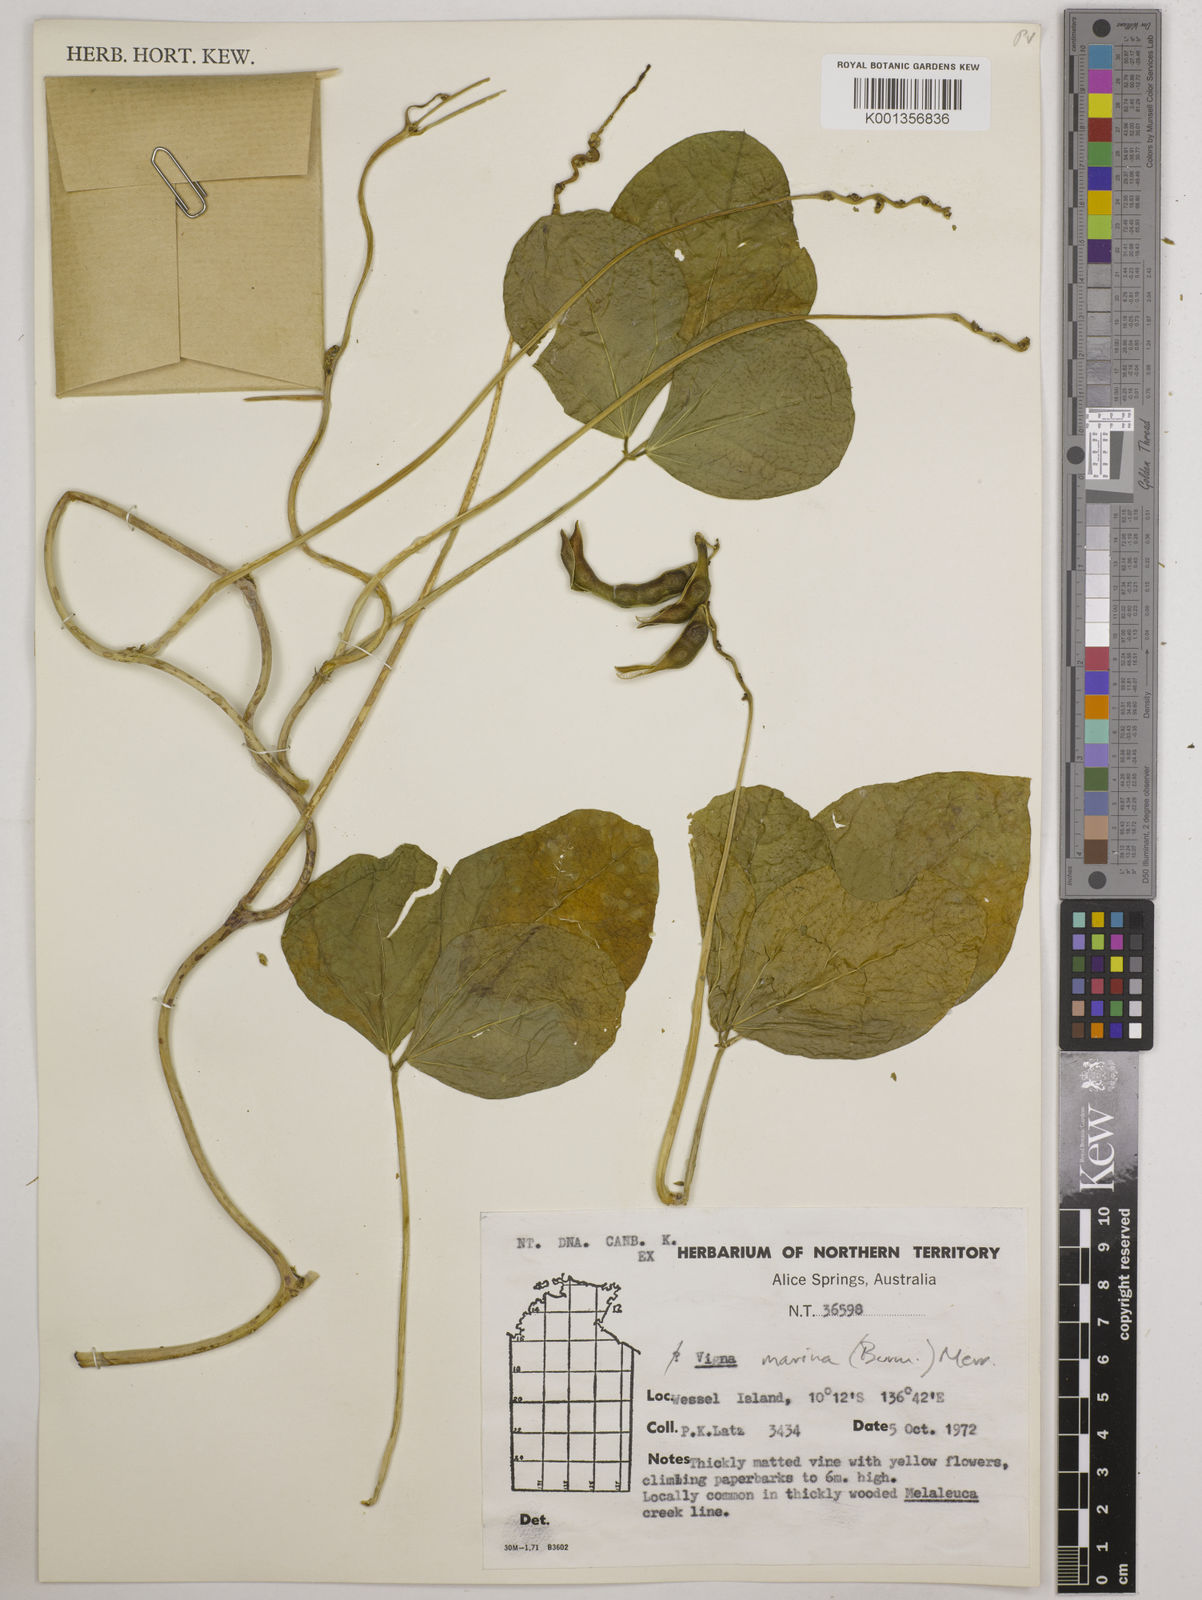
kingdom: Plantae
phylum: Tracheophyta
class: Magnoliopsida
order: Fabales
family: Fabaceae
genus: Vigna
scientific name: Vigna marina
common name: Dune-bean
